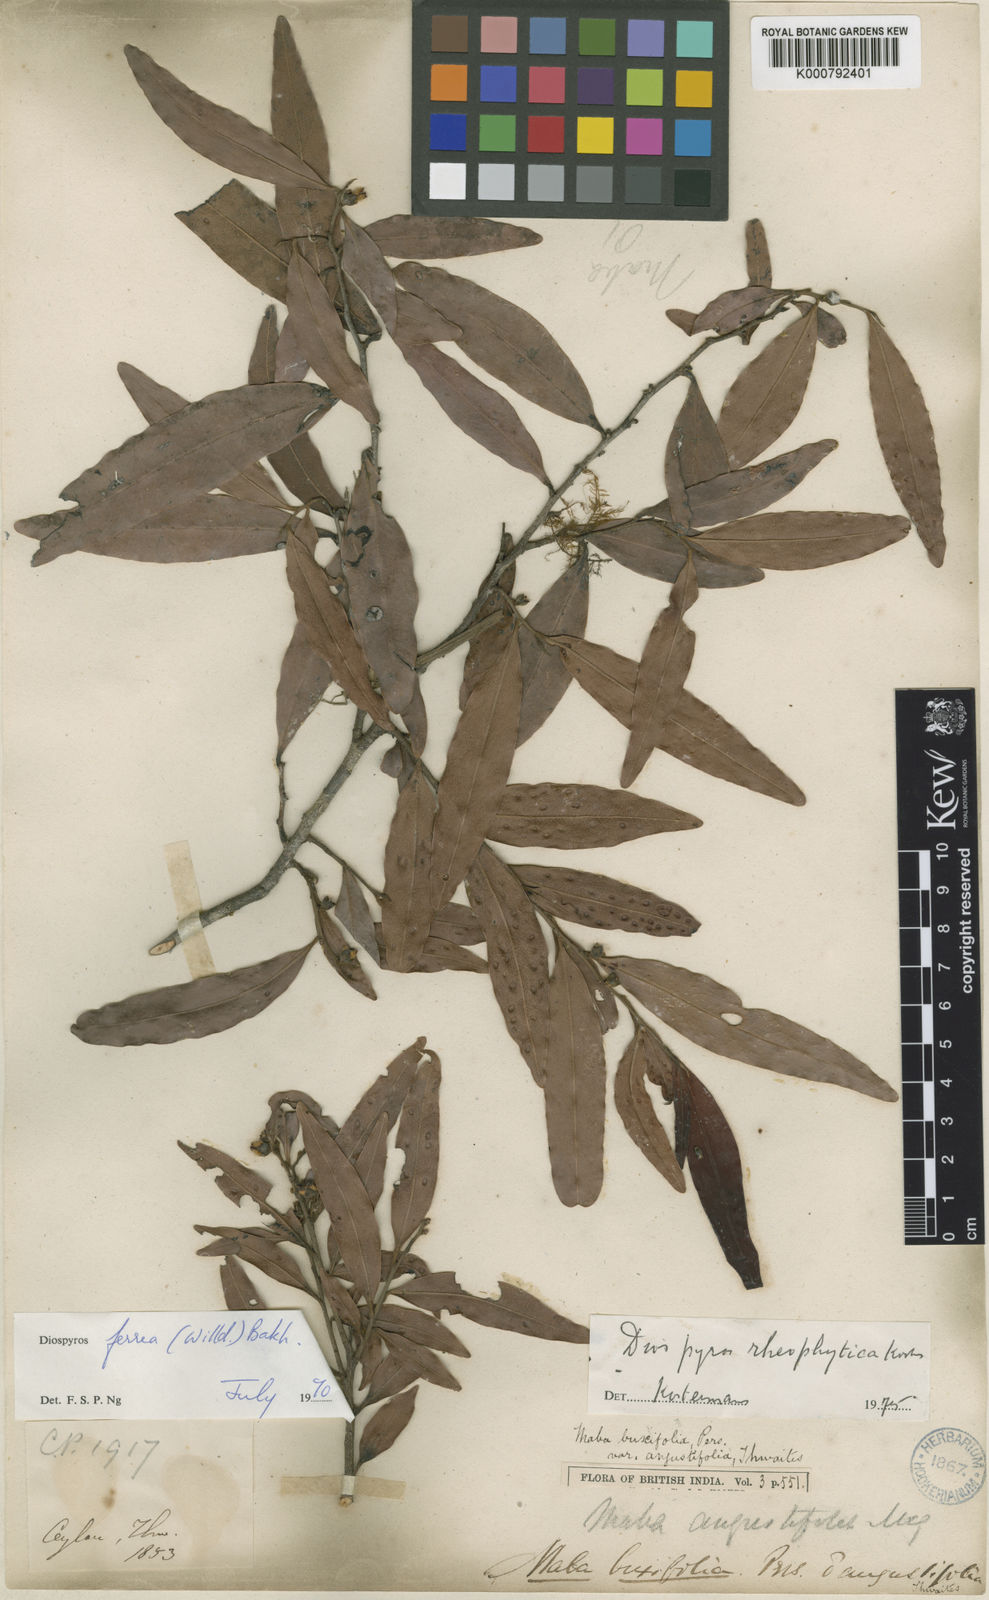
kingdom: Plantae
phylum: Tracheophyta
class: Magnoliopsida
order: Ericales
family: Ebenaceae
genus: Diospyros
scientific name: Diospyros buxifolia
